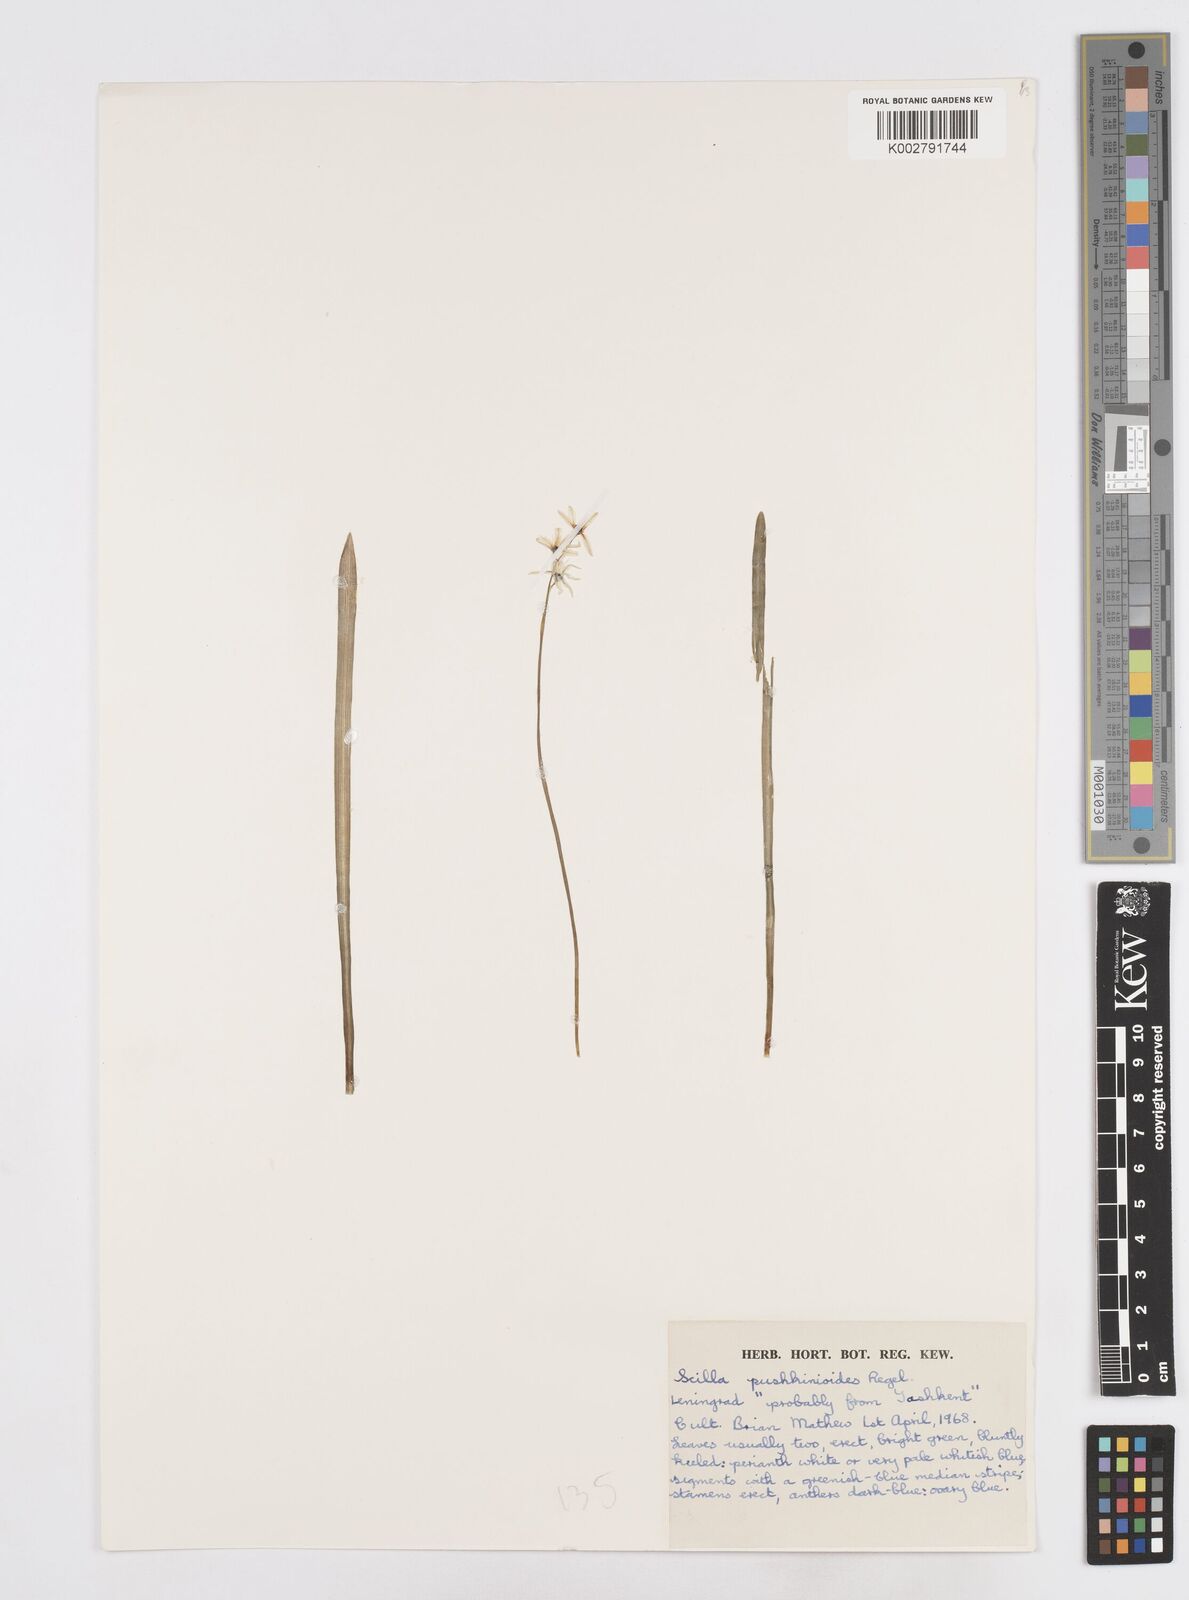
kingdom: Plantae
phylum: Tracheophyta
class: Liliopsida
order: Asparagales
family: Asparagaceae
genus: Fessia
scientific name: Fessia puschkinioides
